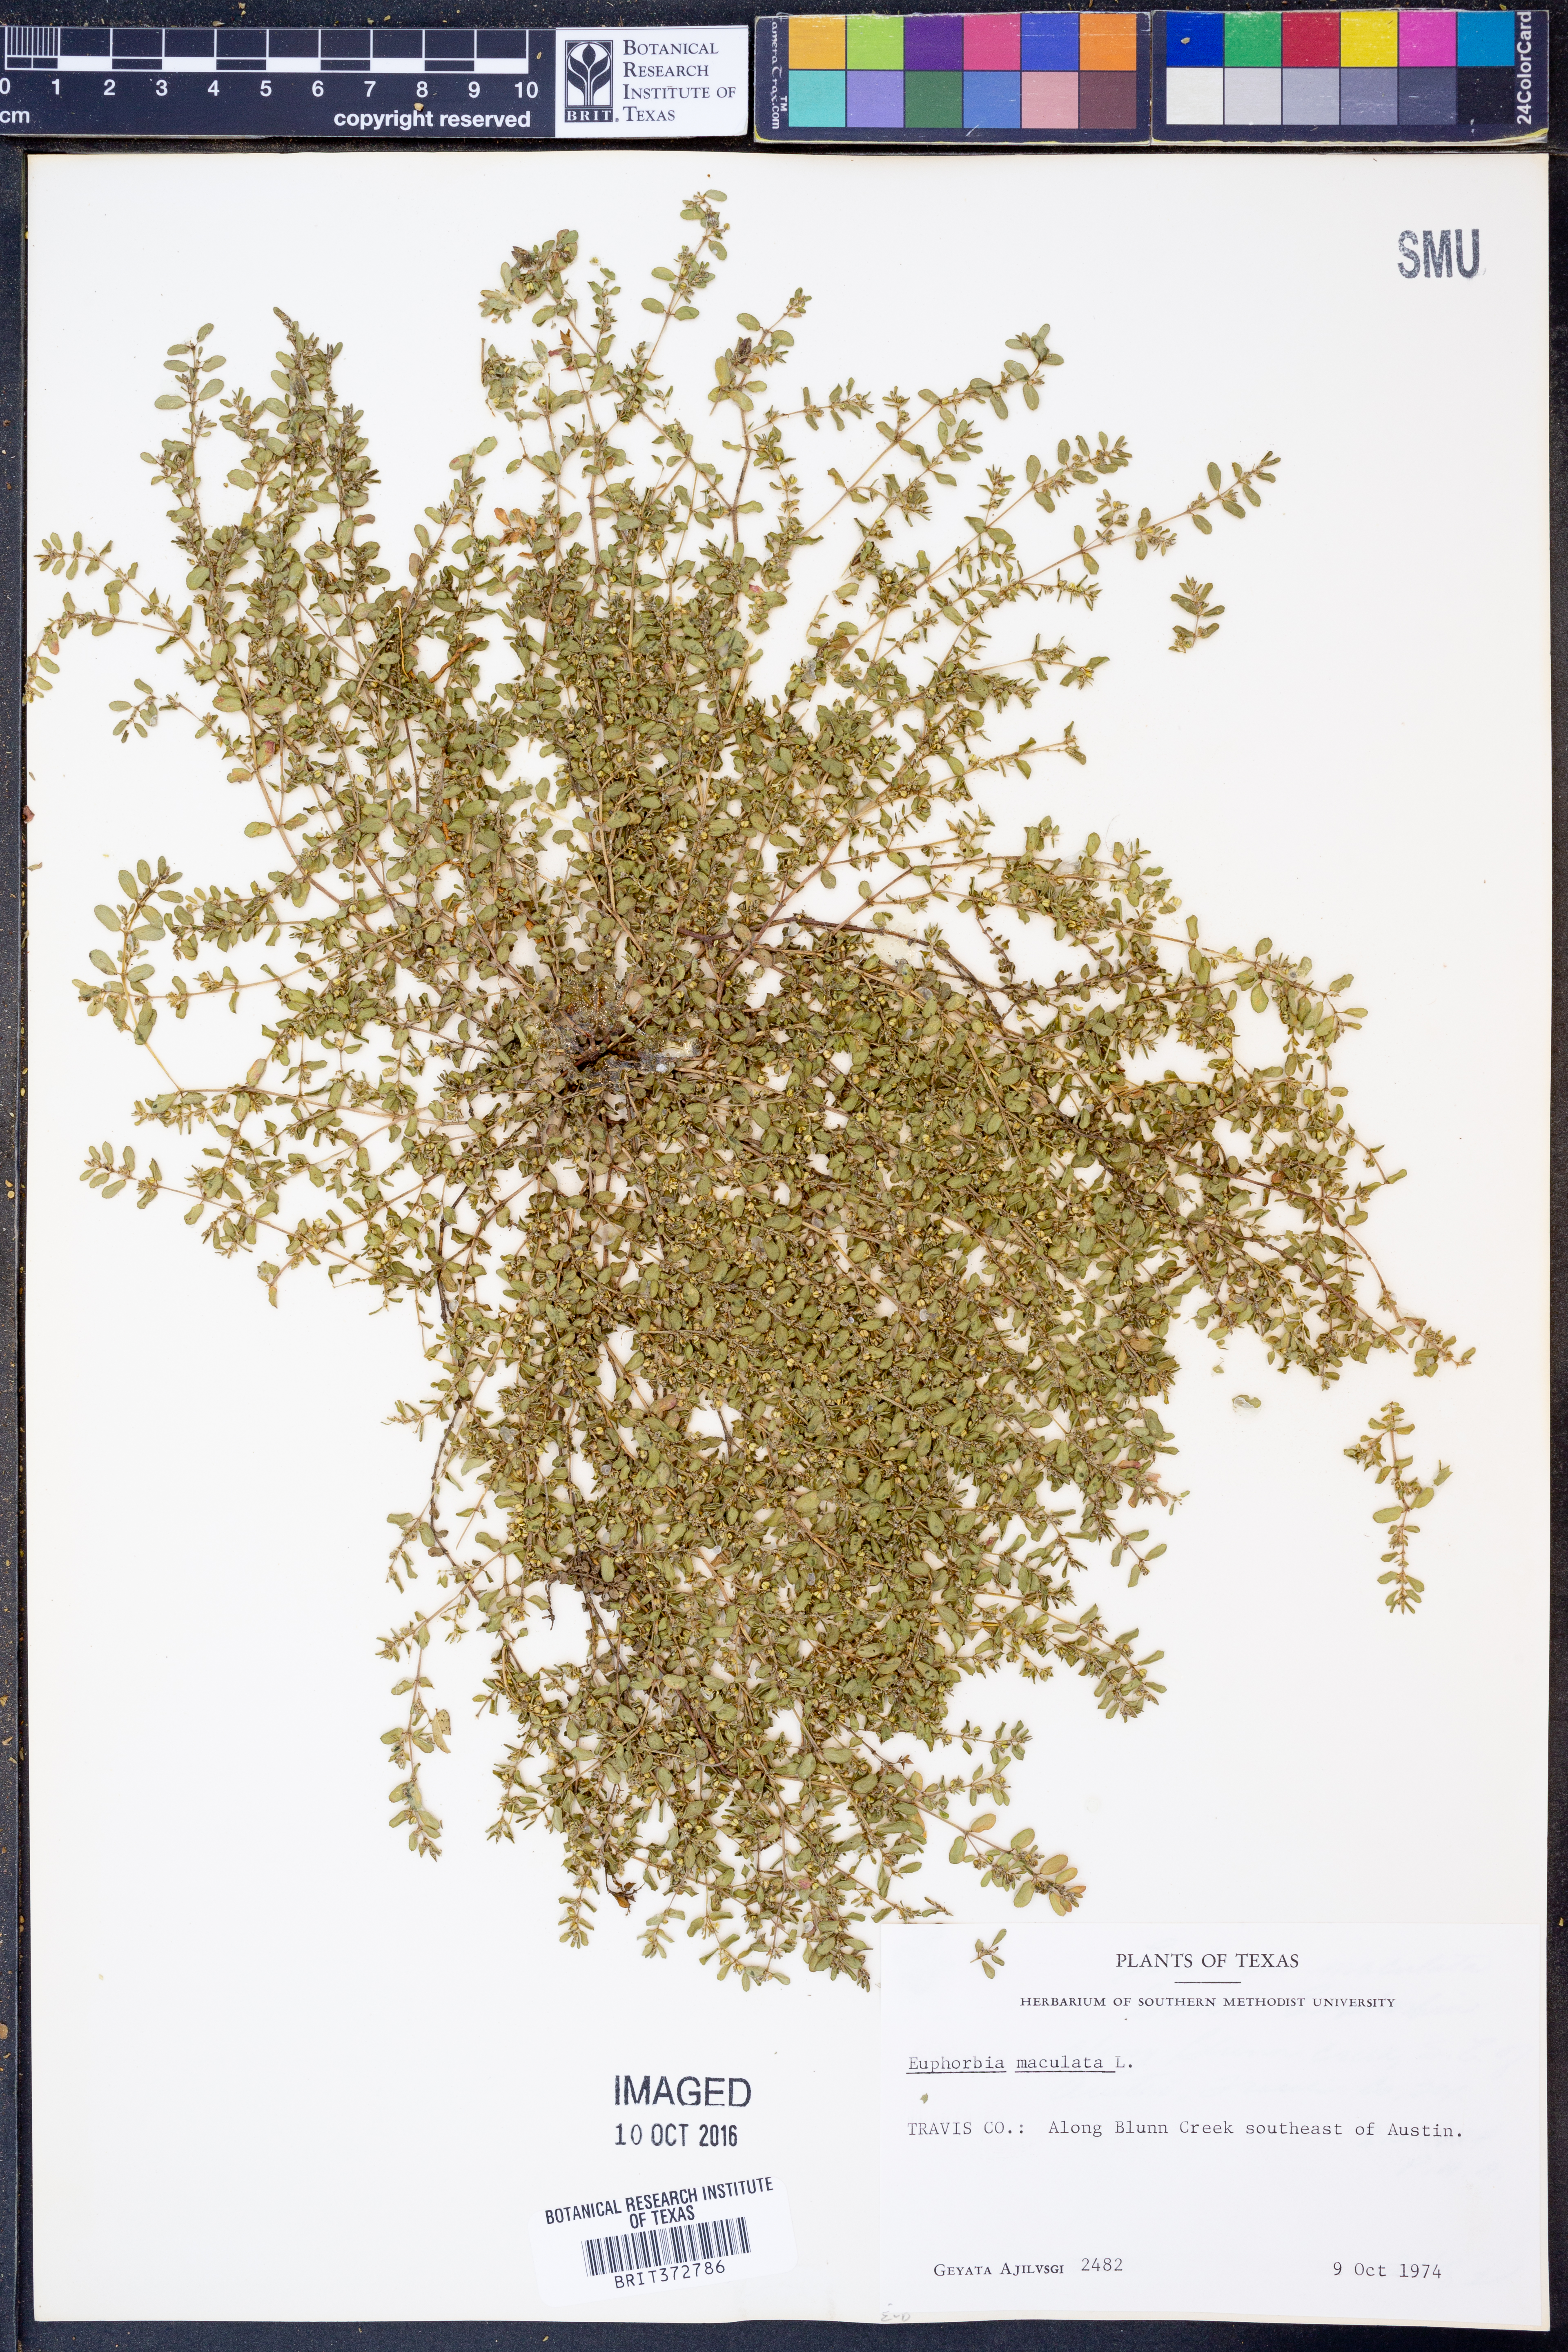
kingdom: Plantae
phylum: Tracheophyta
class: Magnoliopsida
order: Malpighiales
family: Euphorbiaceae
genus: Euphorbia
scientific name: Euphorbia maculata
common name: Spotted spurge
